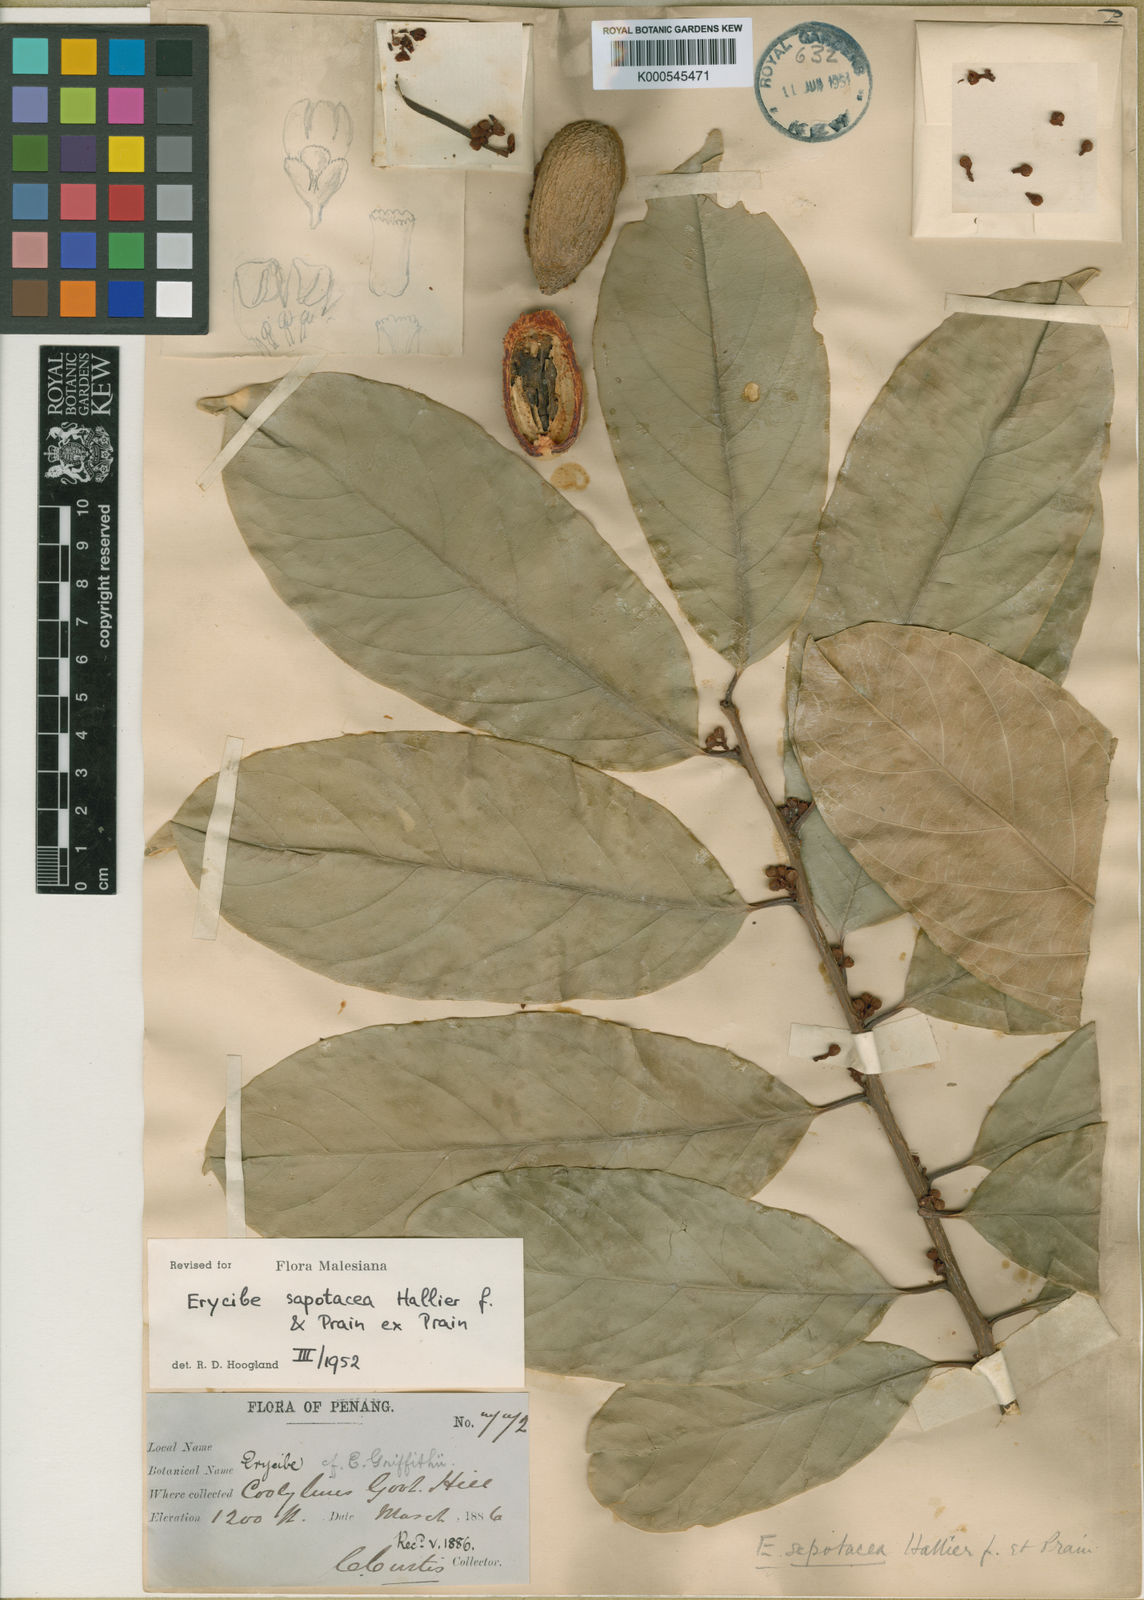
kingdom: Plantae
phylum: Tracheophyta
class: Magnoliopsida
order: Solanales
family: Convolvulaceae
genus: Erycibe
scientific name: Erycibe sapotacea
